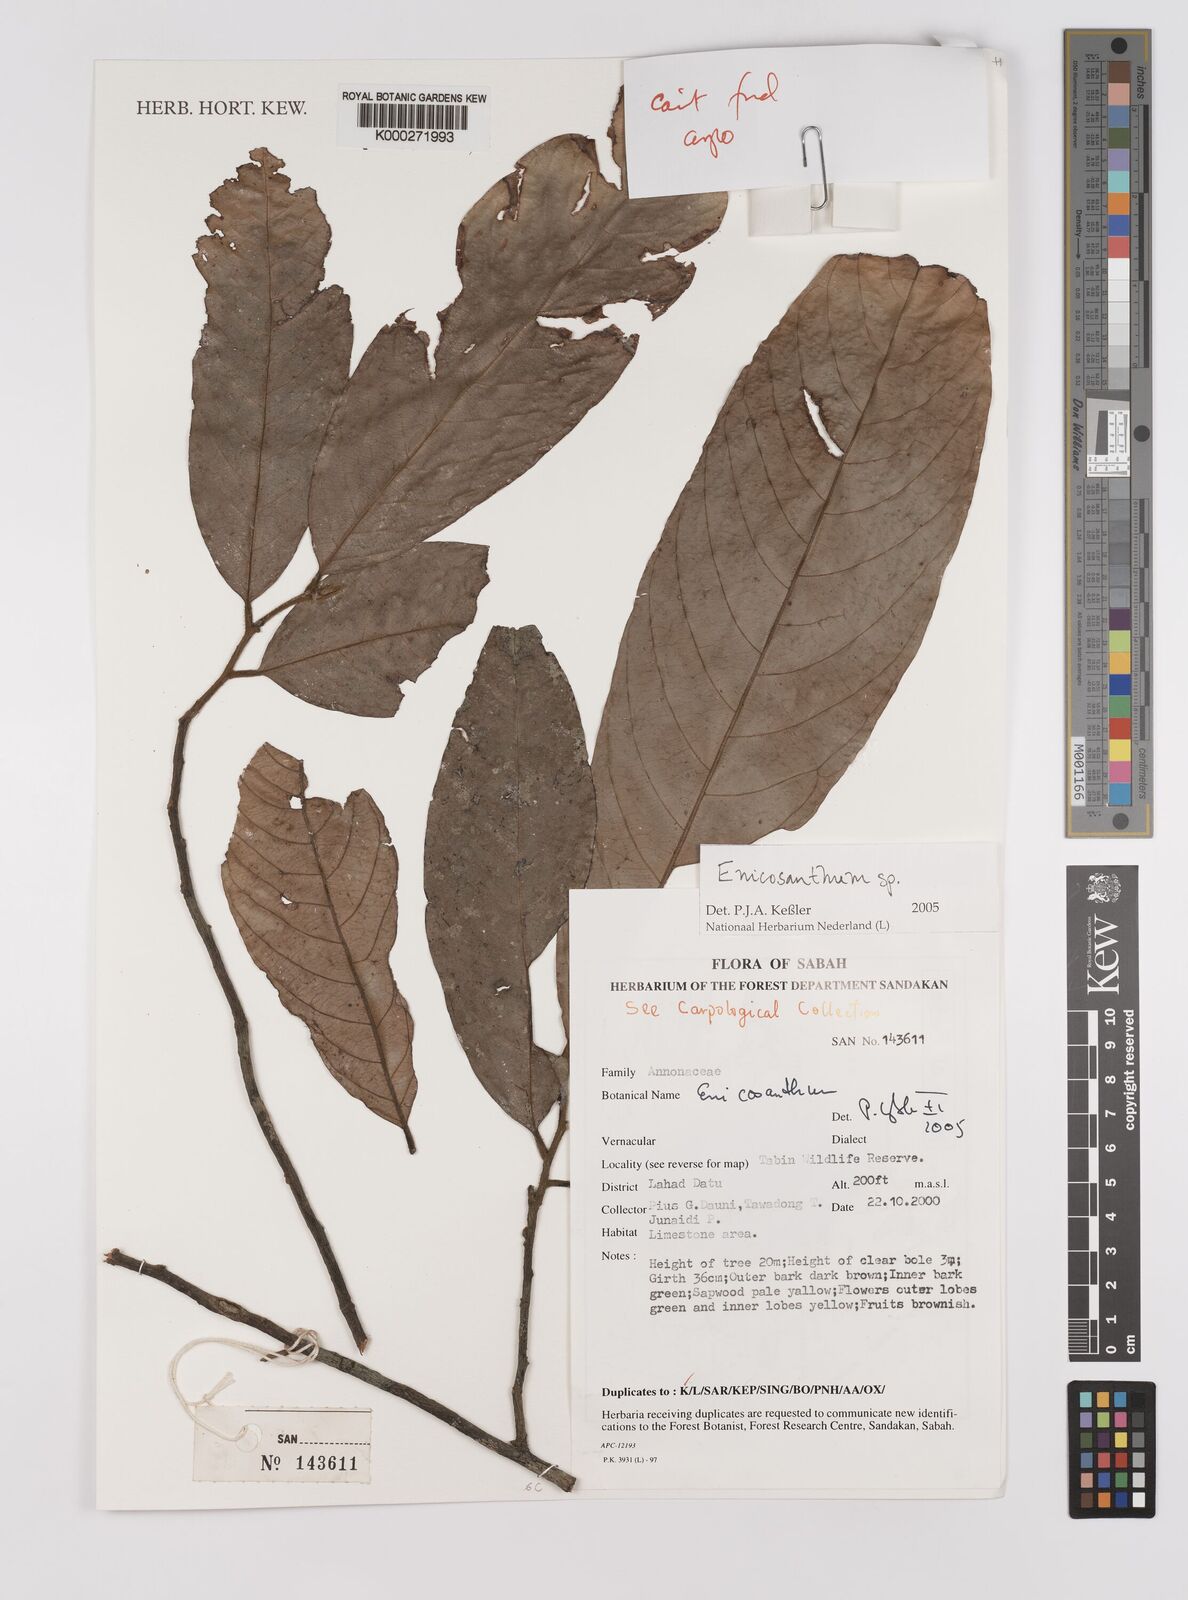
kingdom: Plantae
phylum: Tracheophyta
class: Magnoliopsida
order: Magnoliales
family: Annonaceae
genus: Enicosanthum
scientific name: Enicosanthum
